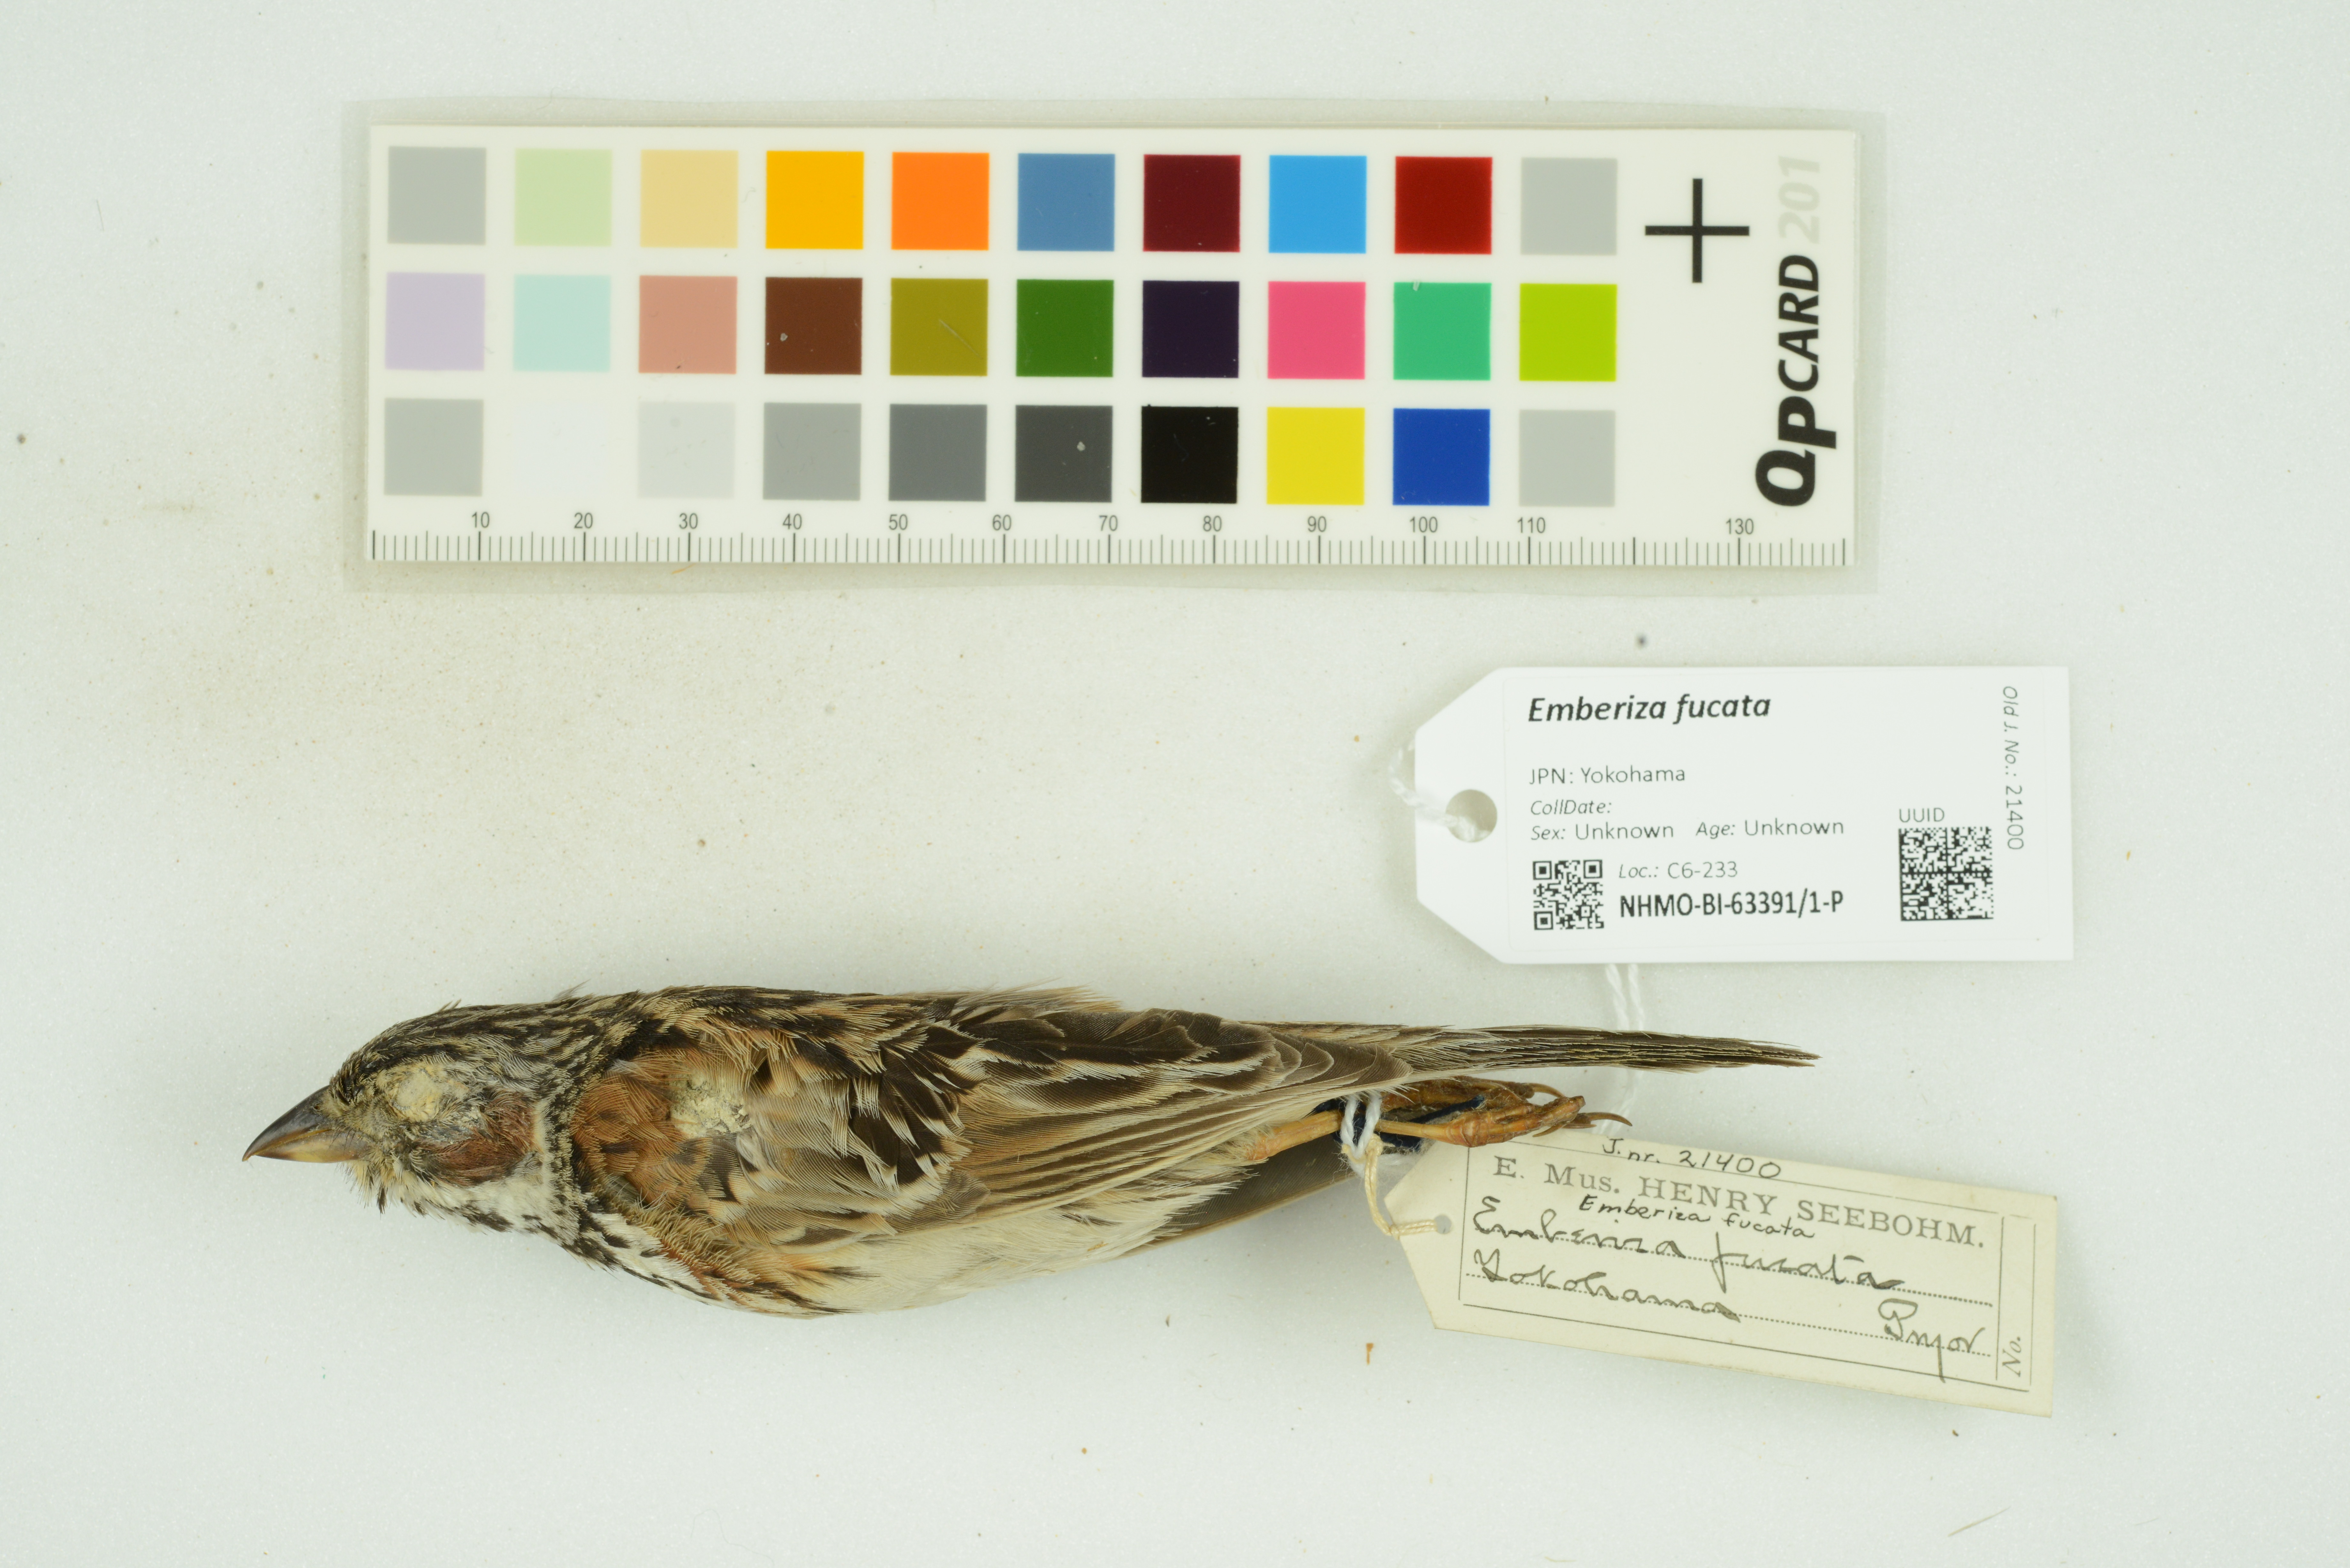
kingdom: Animalia
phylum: Chordata
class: Aves
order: Passeriformes
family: Emberizidae
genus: Emberiza
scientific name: Emberiza fucata
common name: Chestnut-eared bunting
